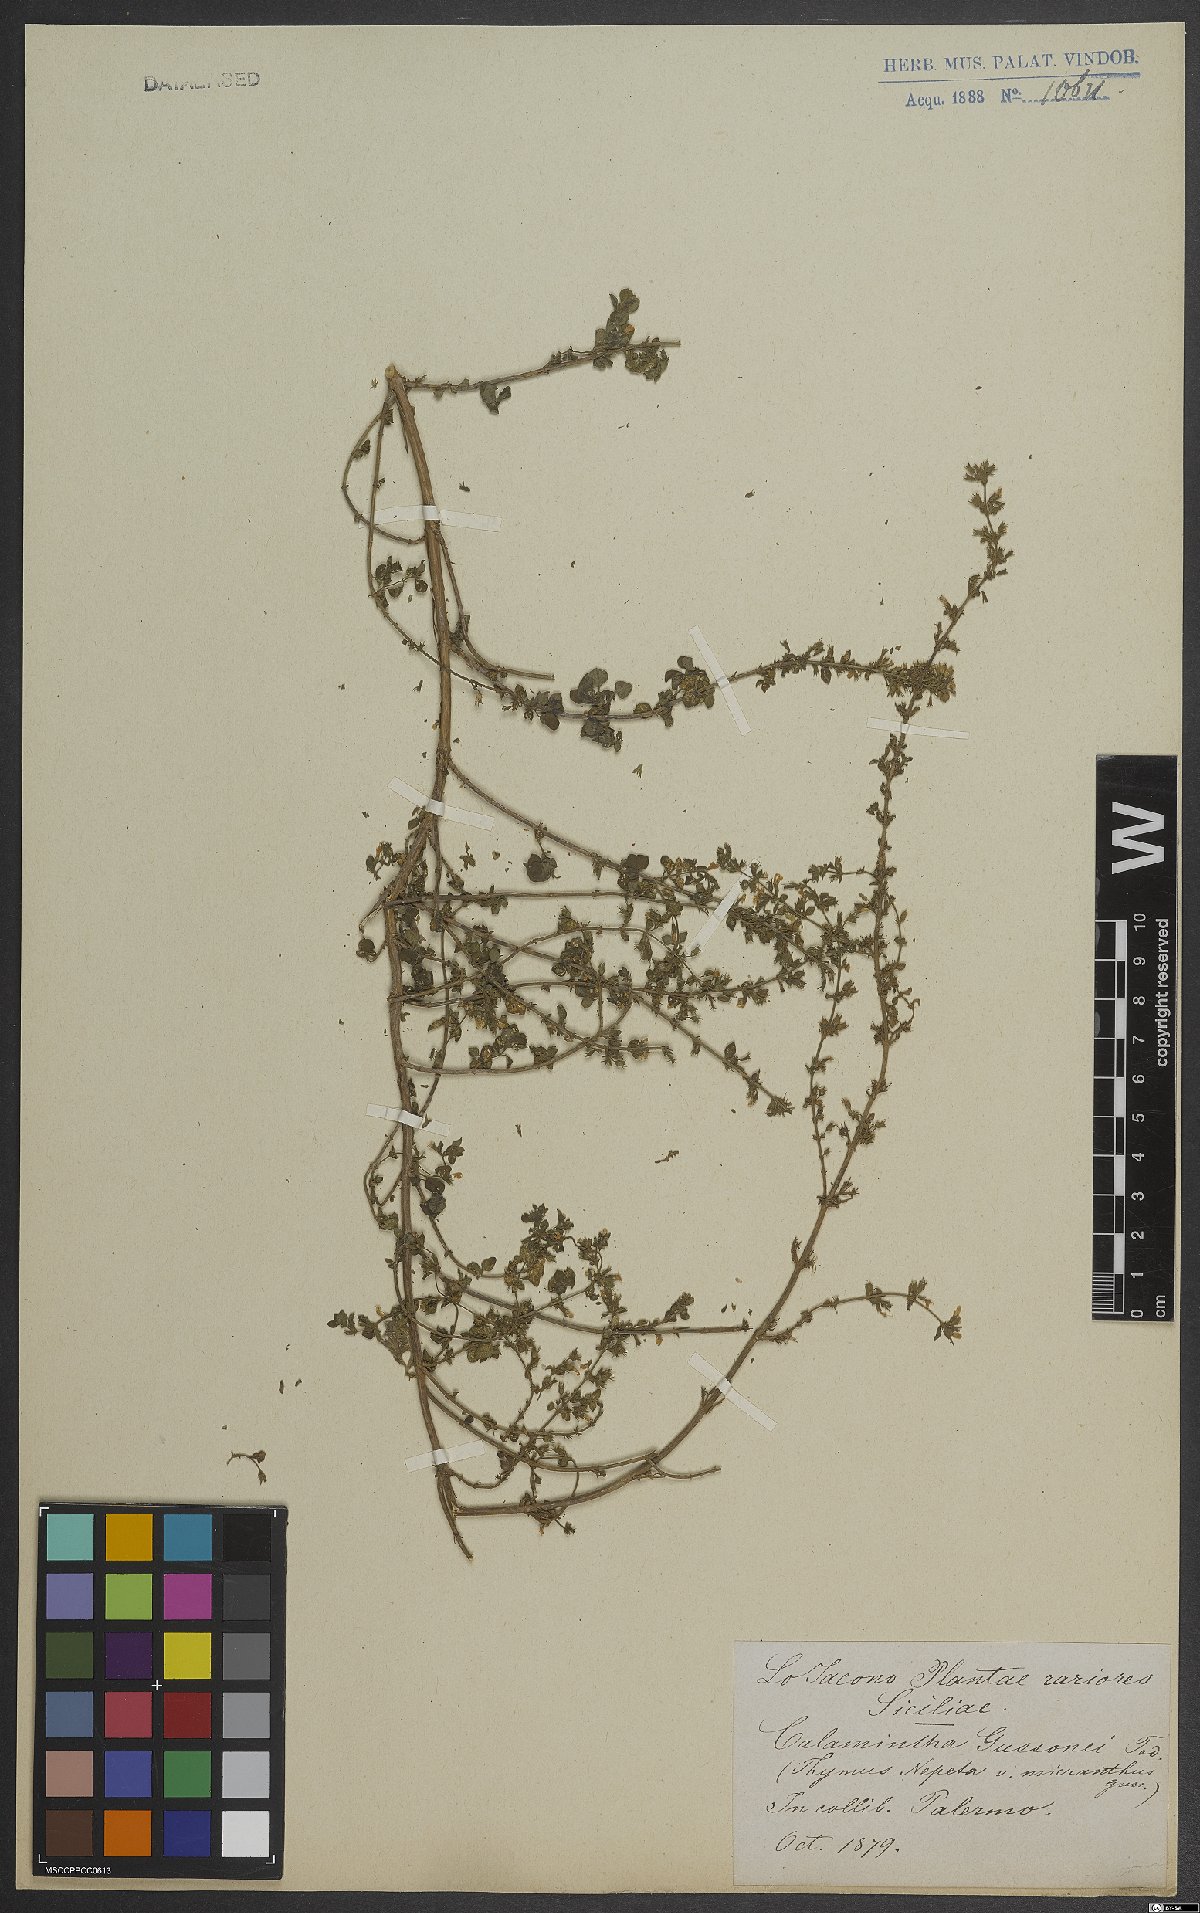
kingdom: Plantae
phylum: Tracheophyta
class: Magnoliopsida
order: Lamiales
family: Lamiaceae
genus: Calamintha
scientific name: Calamintha
